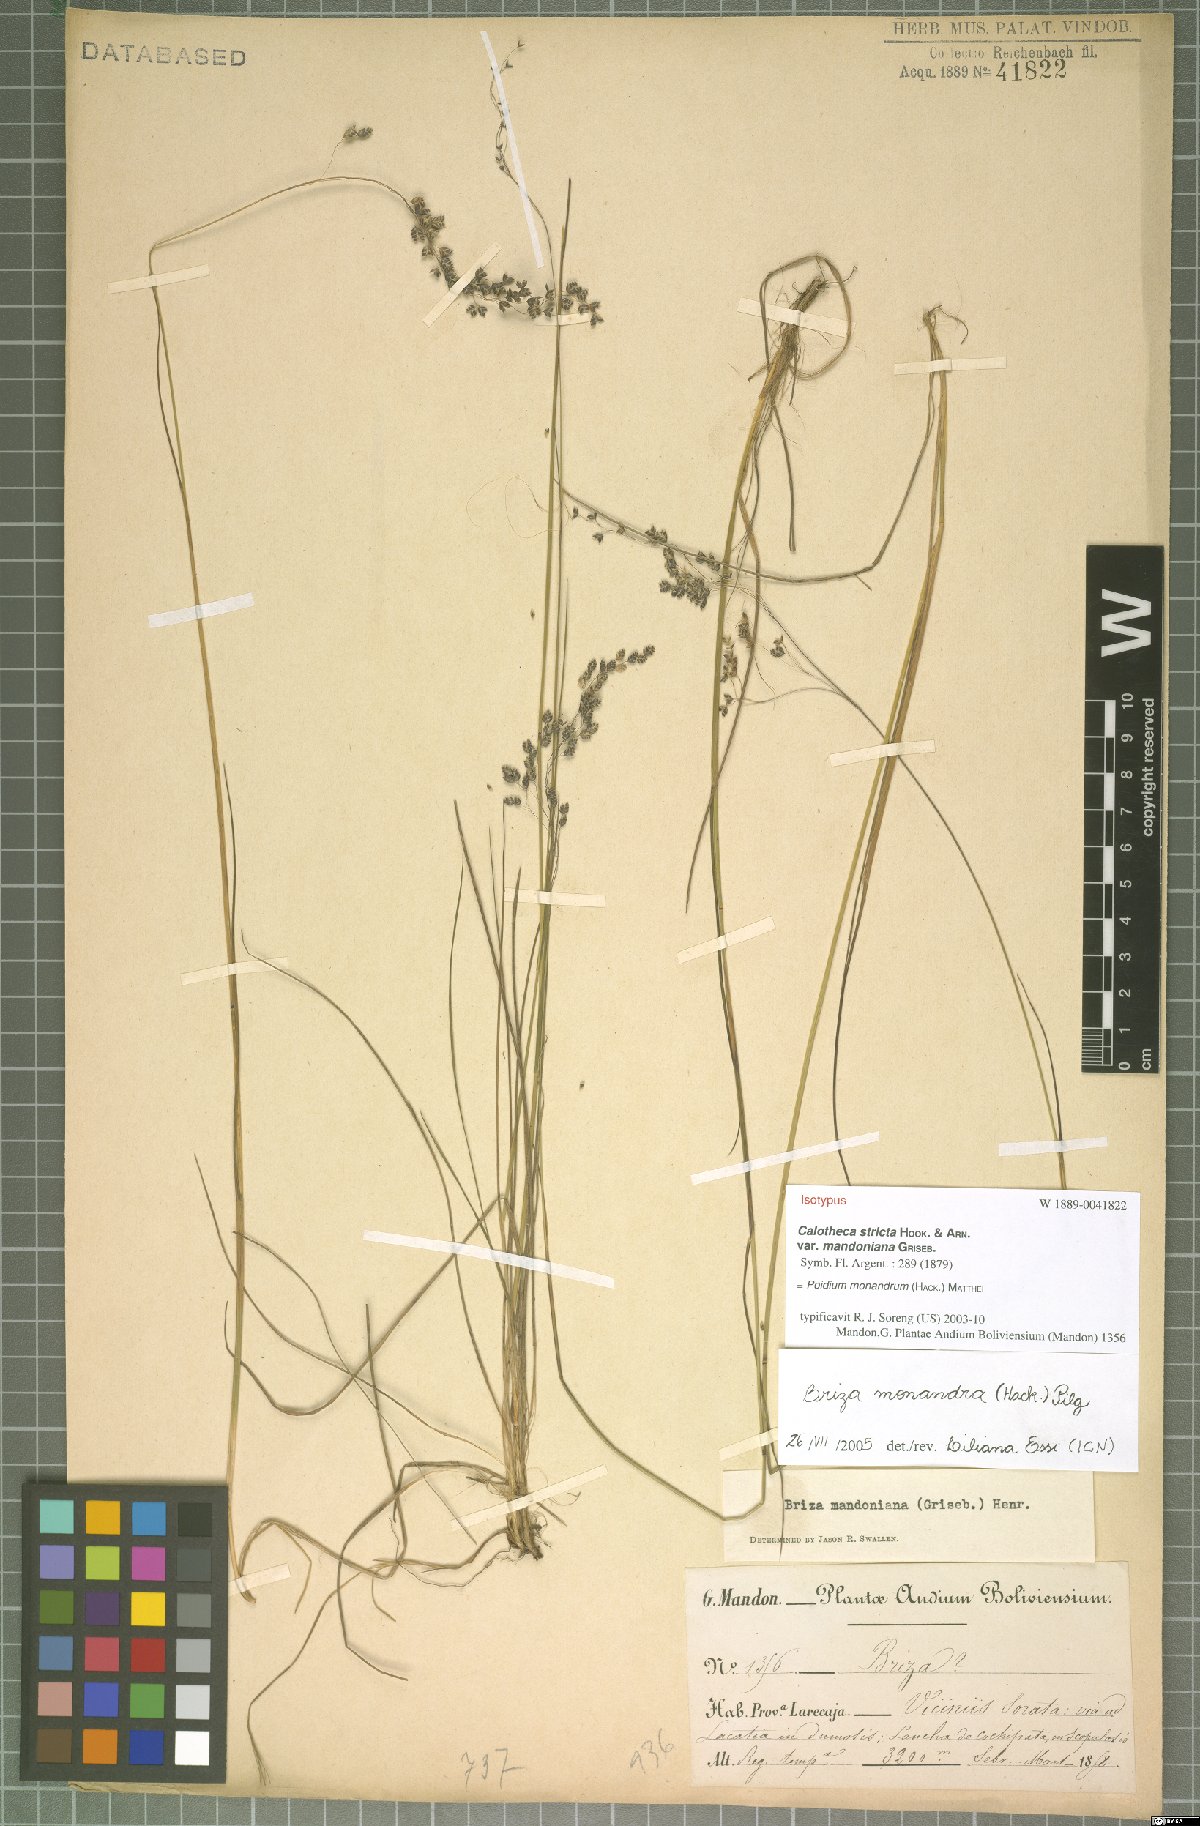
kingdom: Plantae
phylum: Tracheophyta
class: Liliopsida
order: Poales
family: Poaceae
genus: Poidium
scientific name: Poidium monandrum
